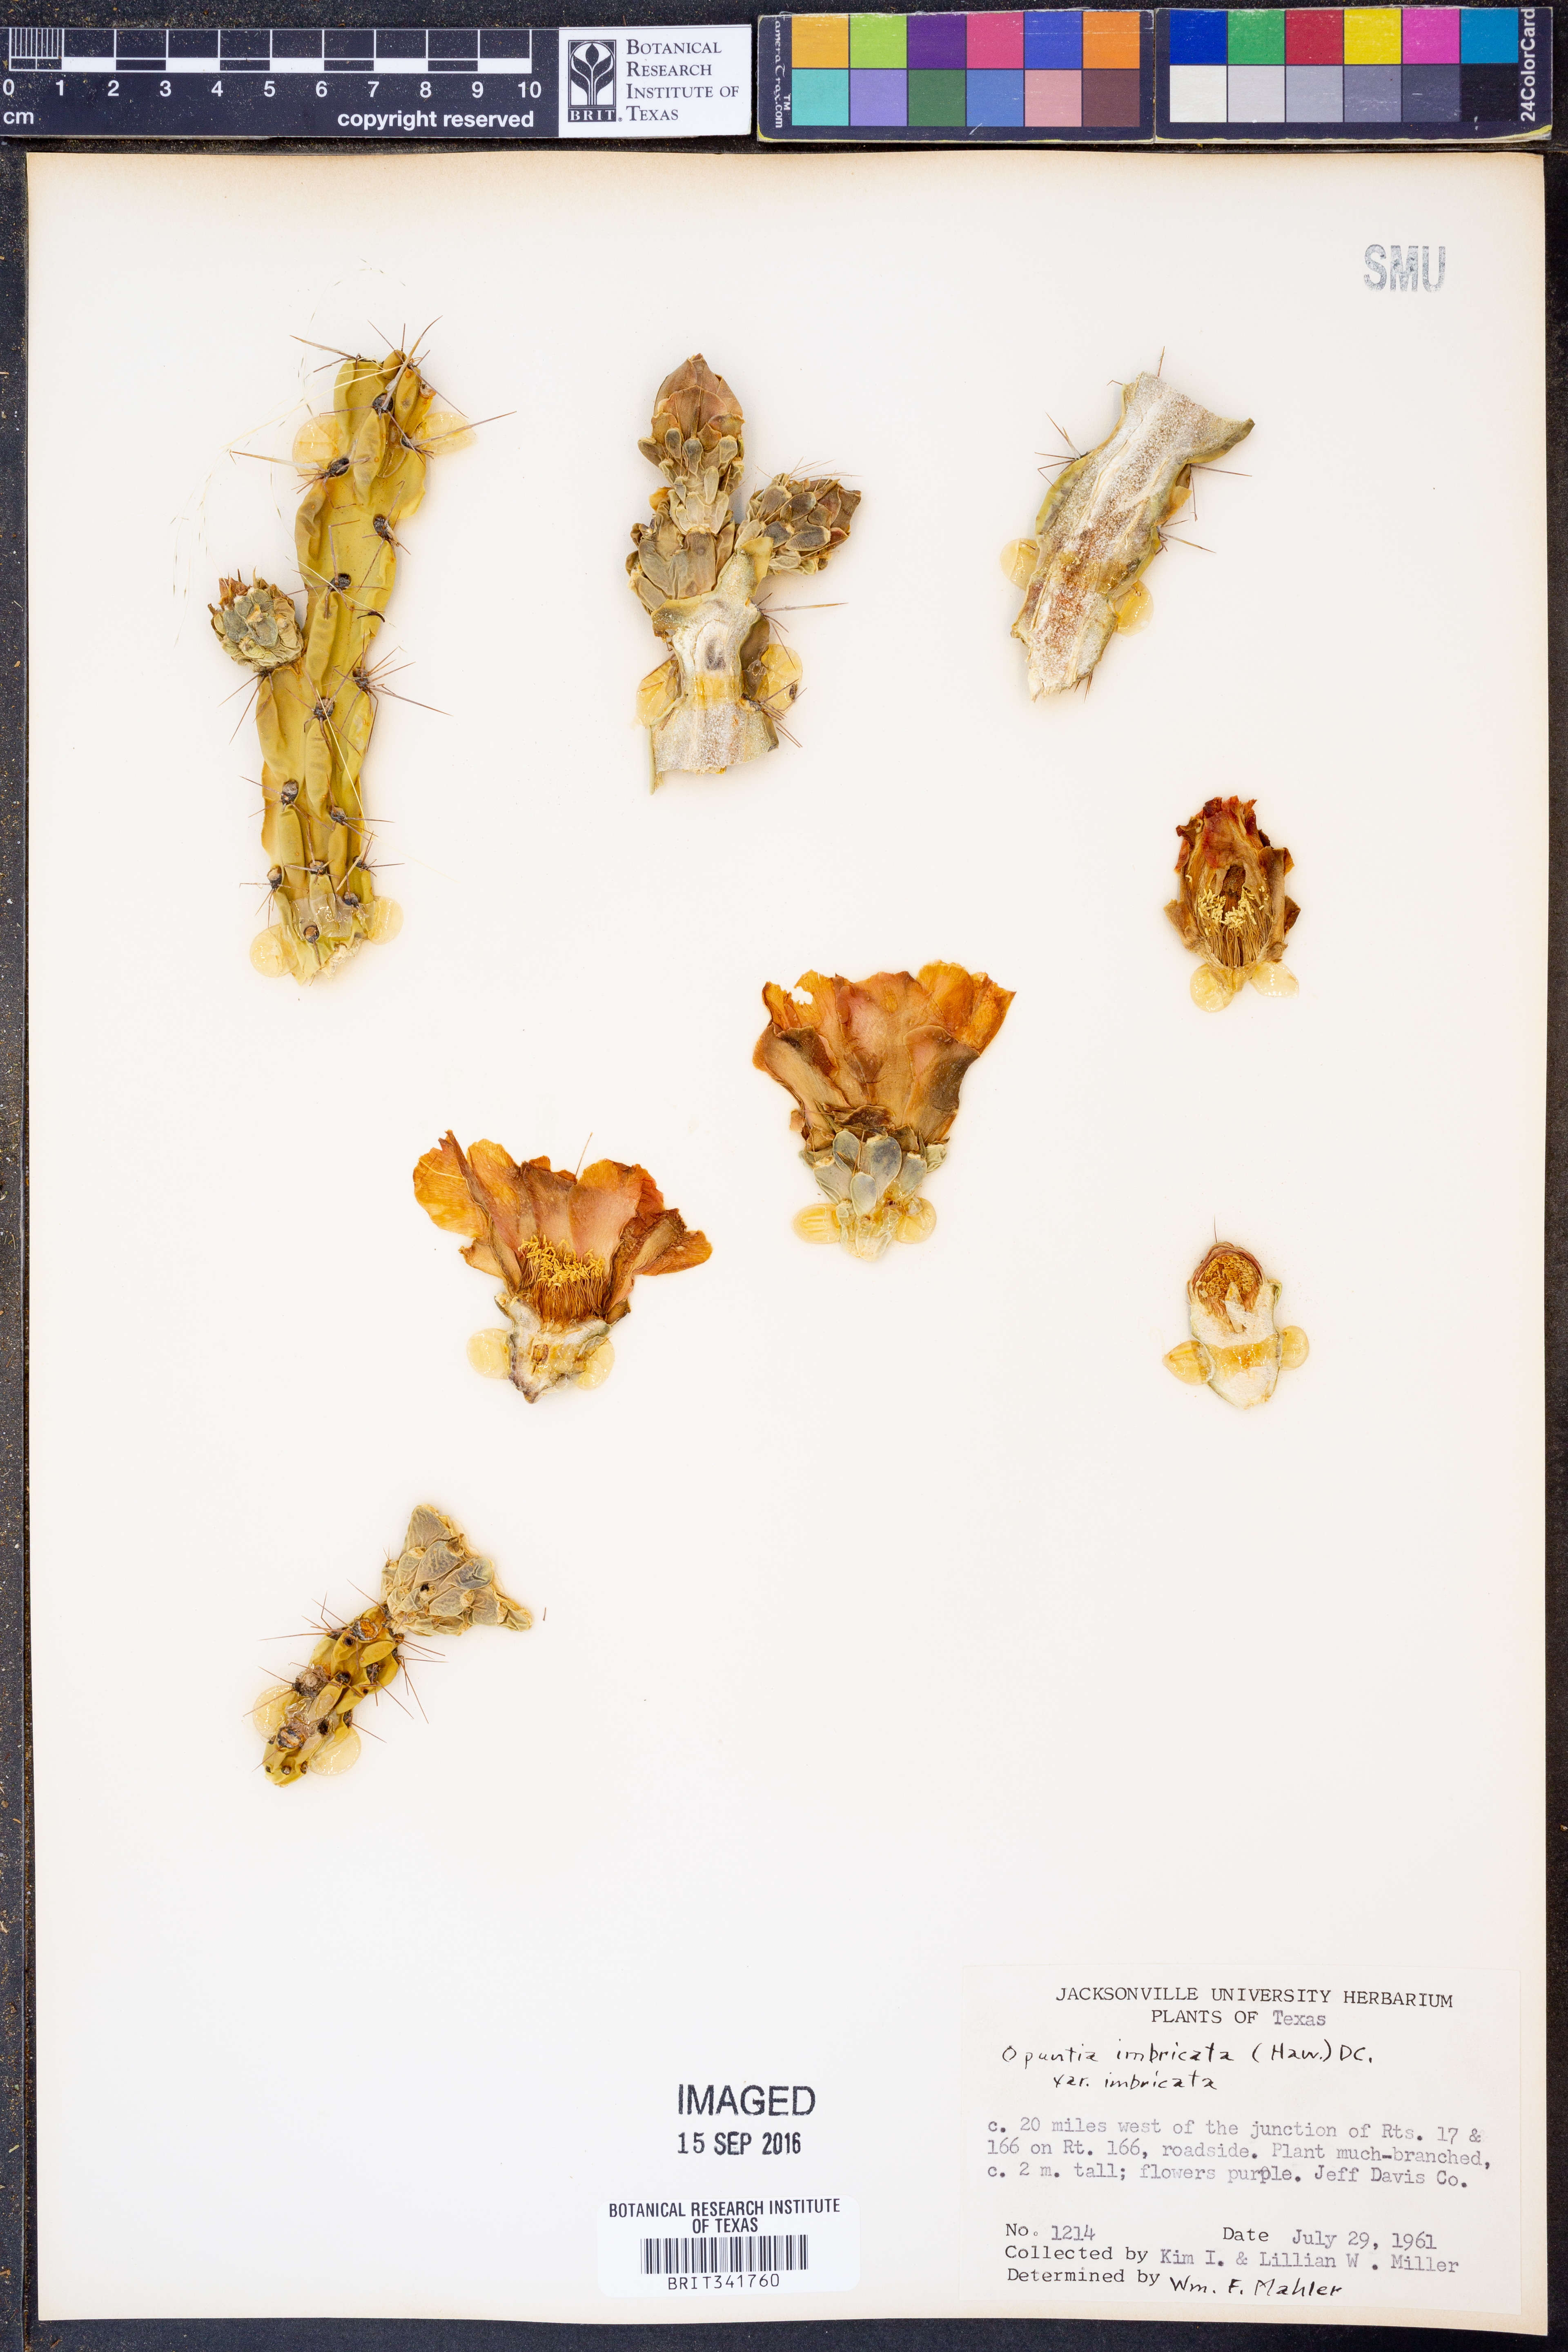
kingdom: Plantae
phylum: Tracheophyta
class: Magnoliopsida
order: Caryophyllales
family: Cactaceae
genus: Cylindropuntia
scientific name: Cylindropuntia imbricata
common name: Candelabrum cactus
